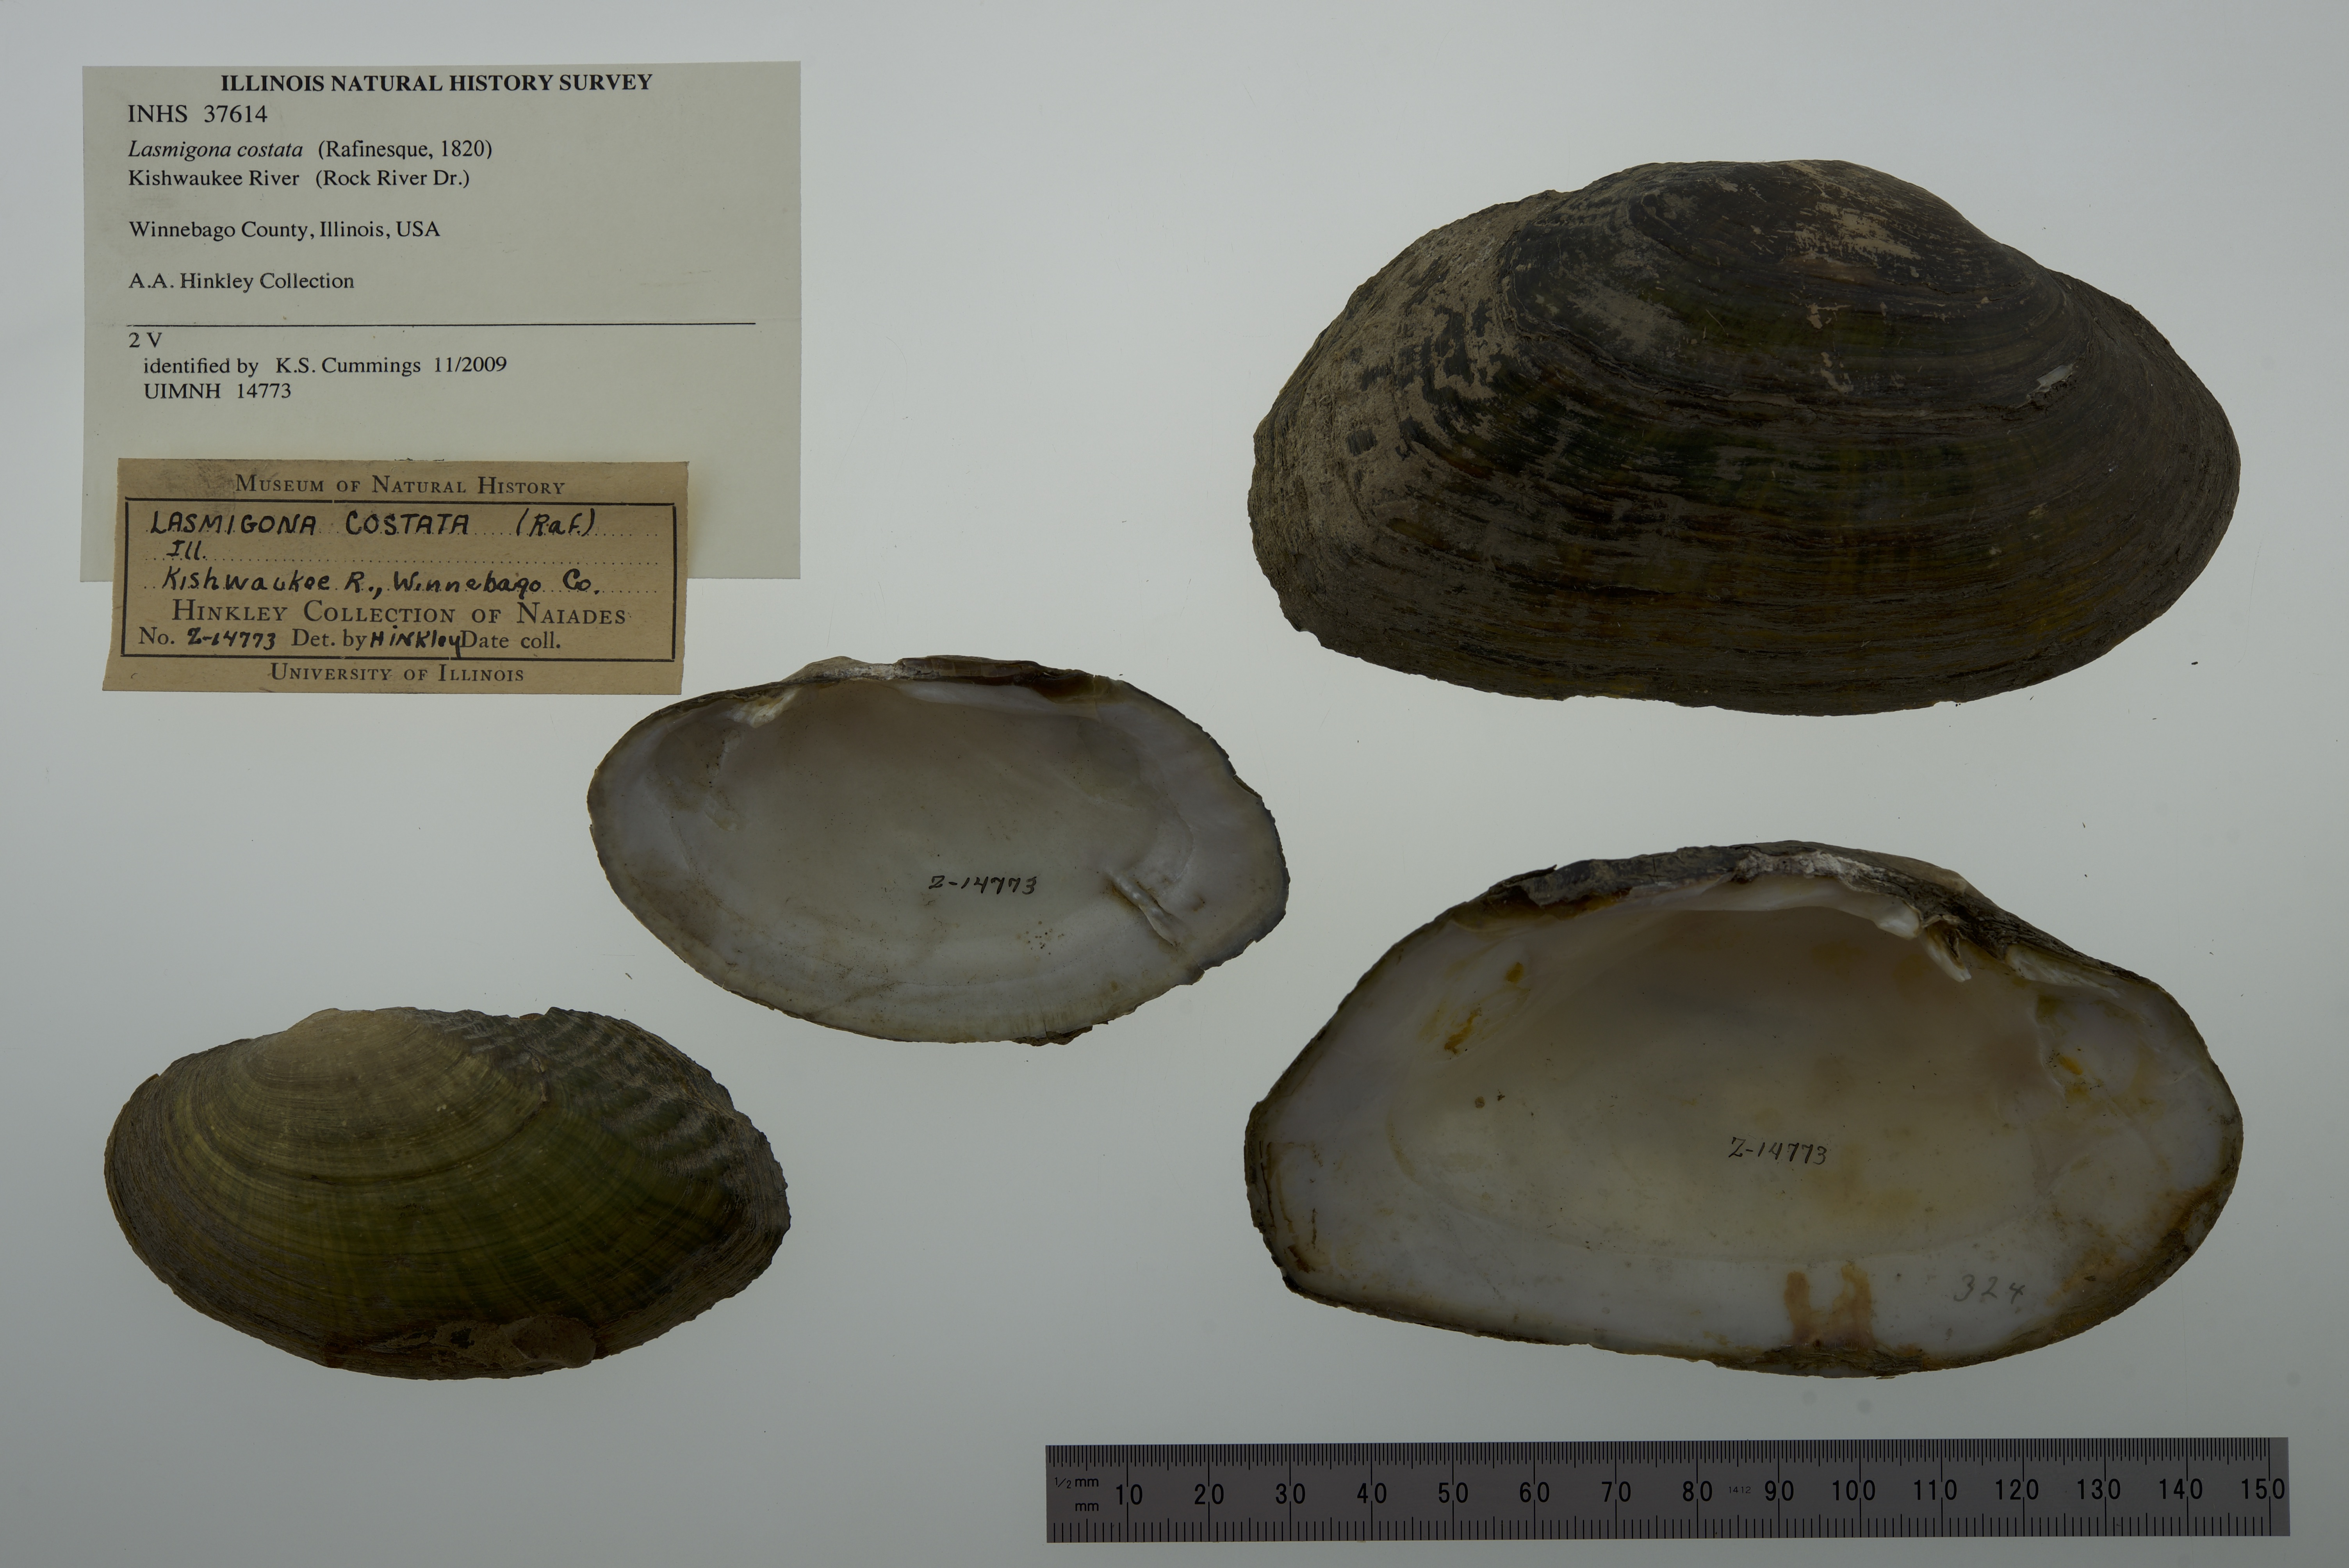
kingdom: Animalia
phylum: Mollusca
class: Bivalvia
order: Unionida
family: Unionidae
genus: Lasmigona
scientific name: Lasmigona costata
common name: Flutedshell
